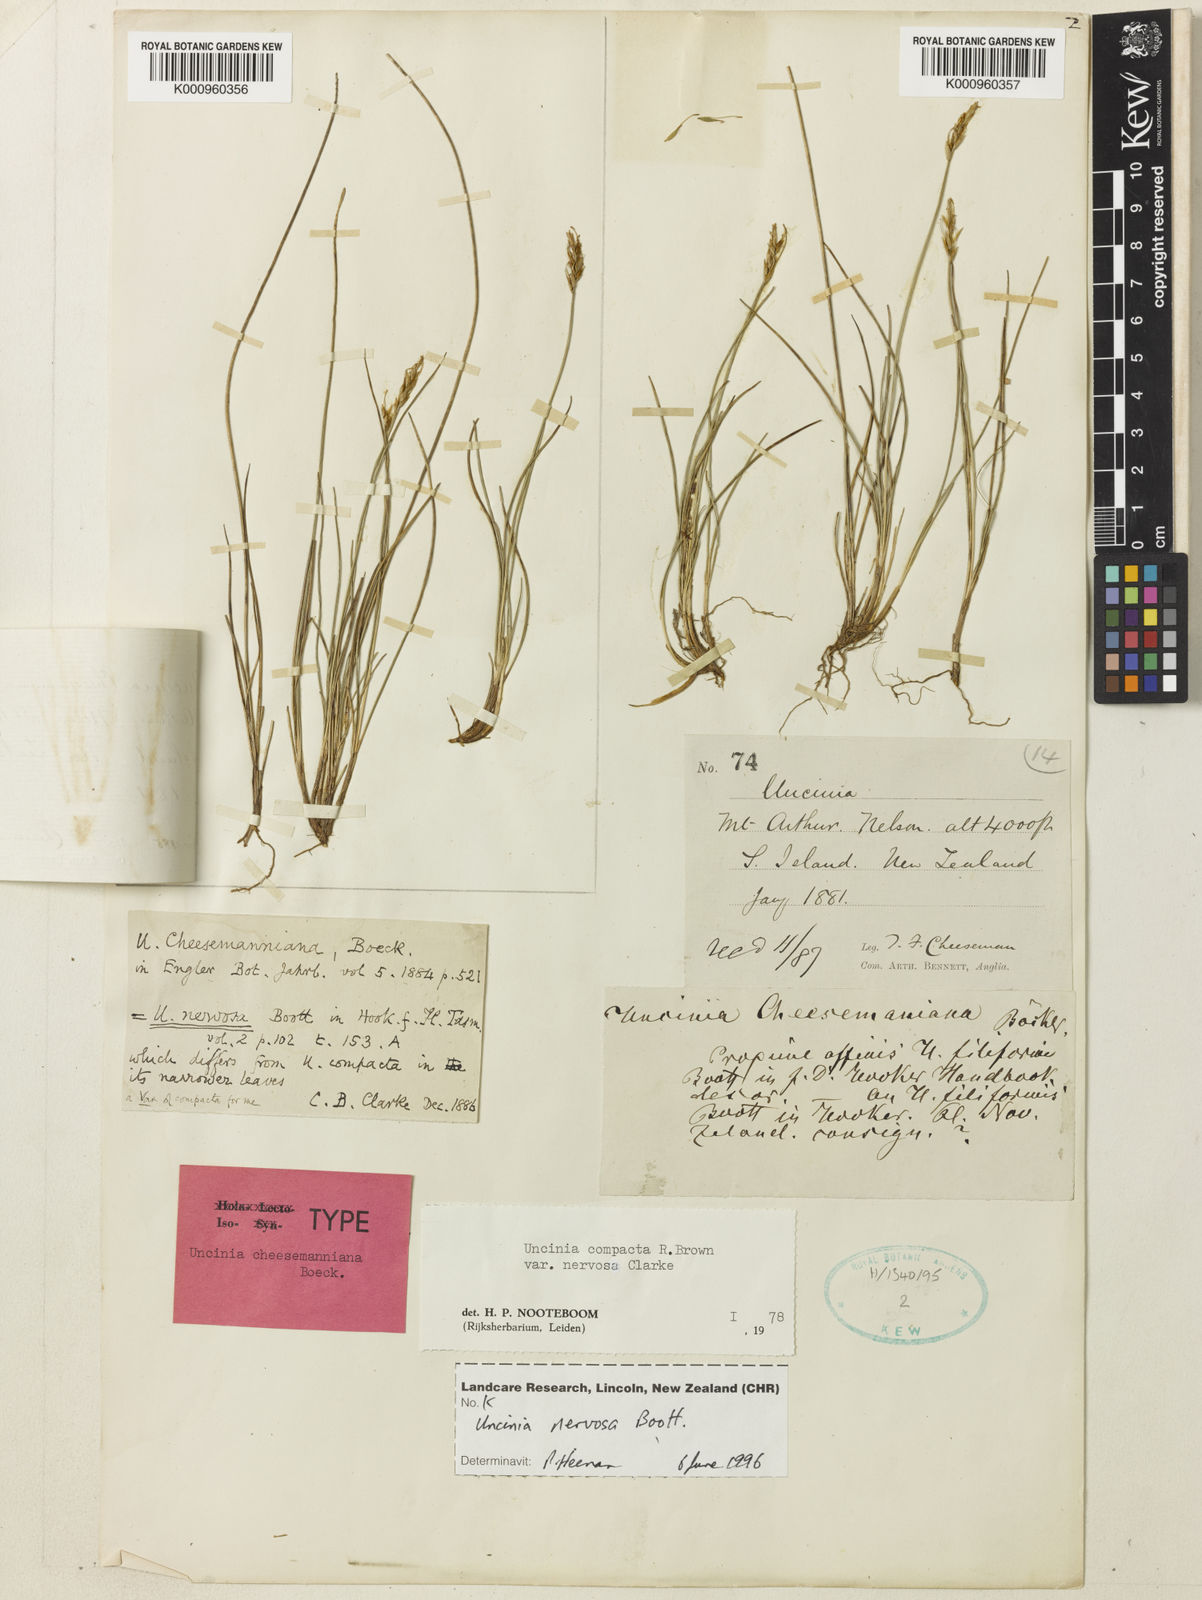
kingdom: Plantae
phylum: Tracheophyta
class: Liliopsida
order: Poales
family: Cyperaceae
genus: Carex
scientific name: Carex cheesemanniana
